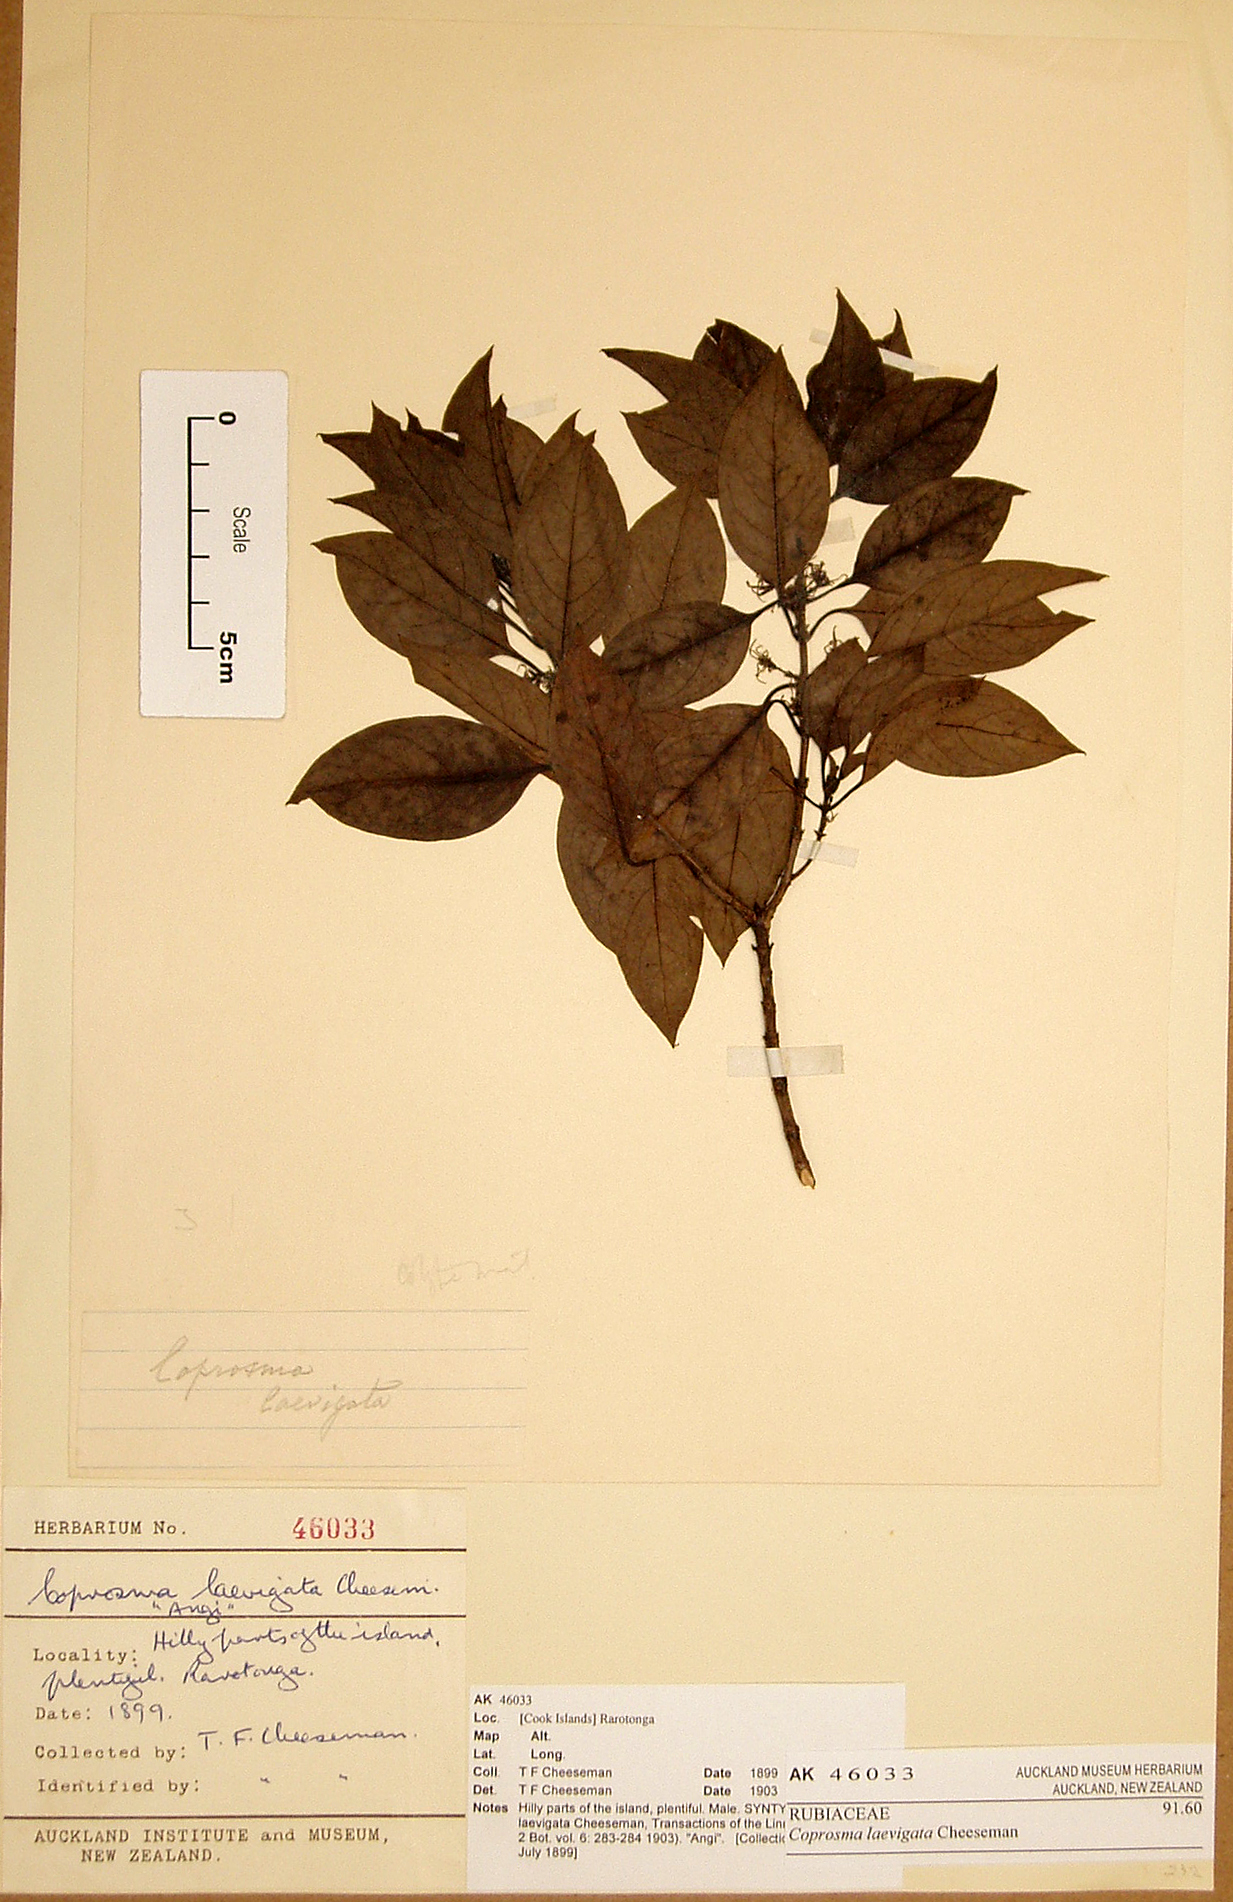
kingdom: Plantae
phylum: Tracheophyta
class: Magnoliopsida
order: Gentianales
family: Rubiaceae
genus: Coprosma
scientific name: Coprosma laevigata
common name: Rarotongan coprosma
